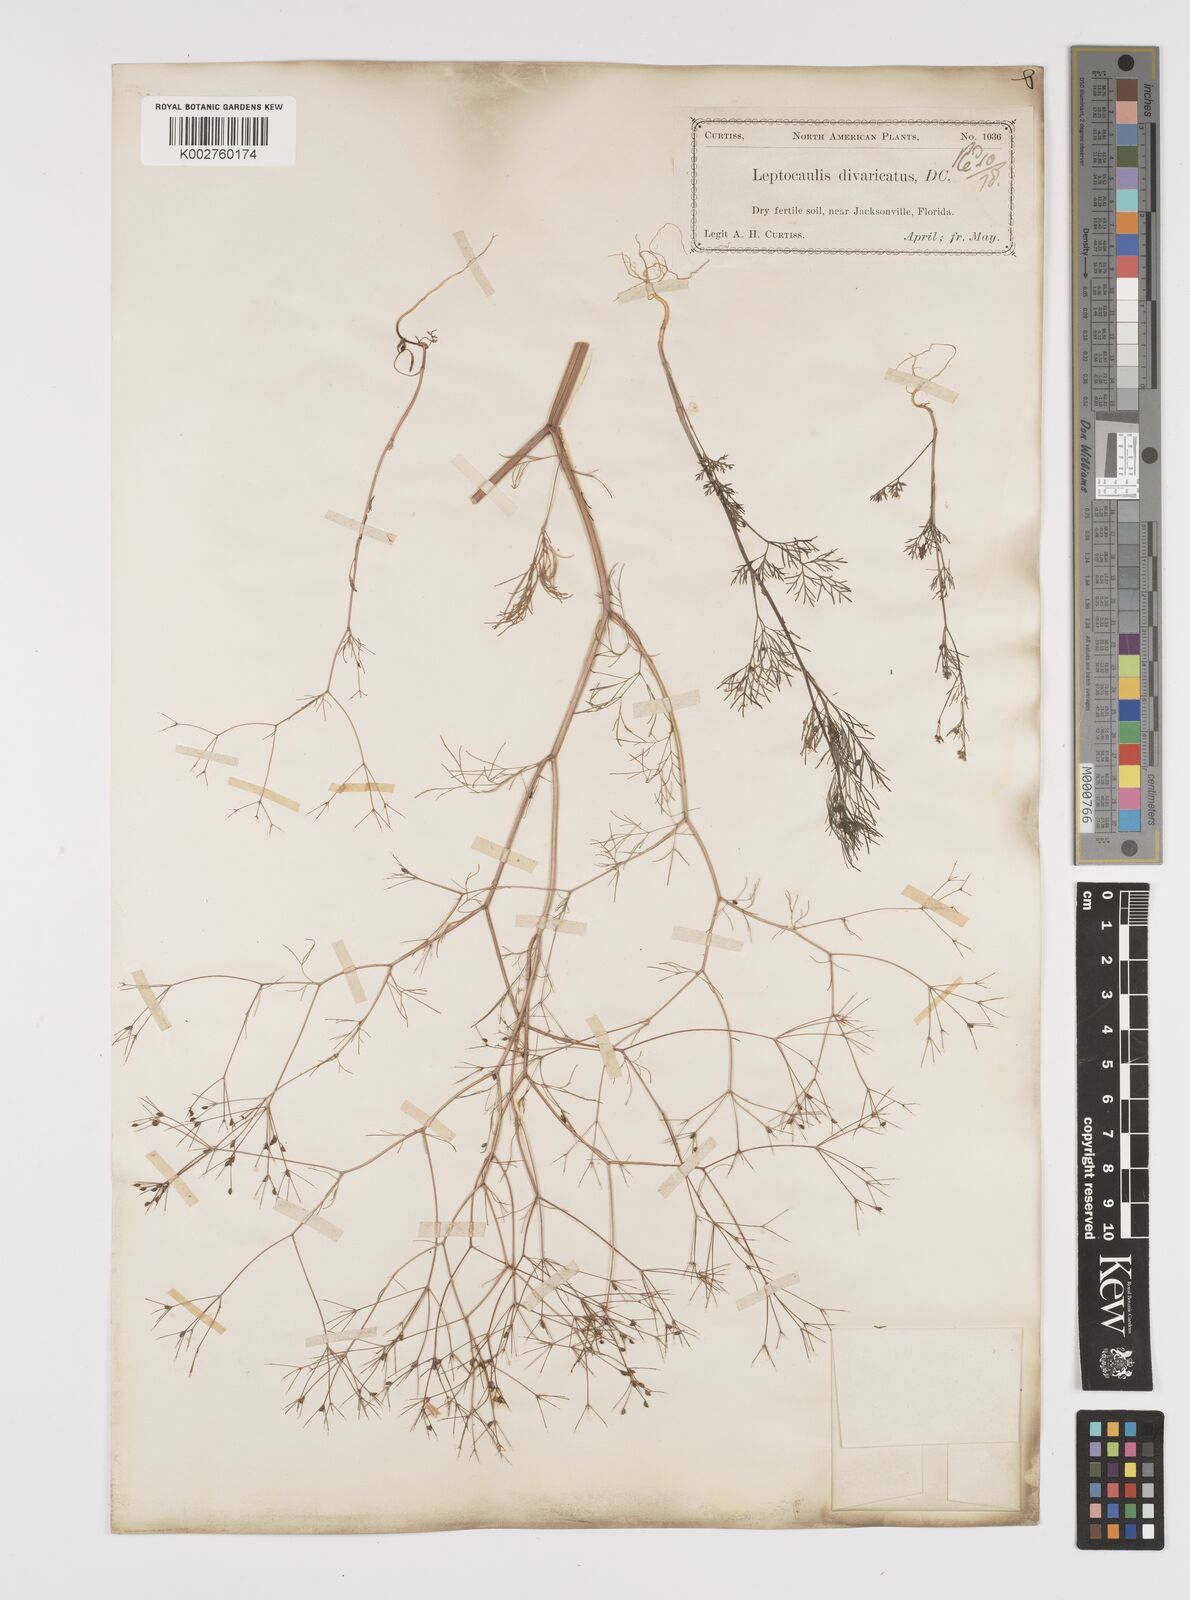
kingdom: Plantae
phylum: Tracheophyta
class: Magnoliopsida
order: Apiales
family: Apiaceae
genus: Spermolepis
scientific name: Spermolepis divaricata
